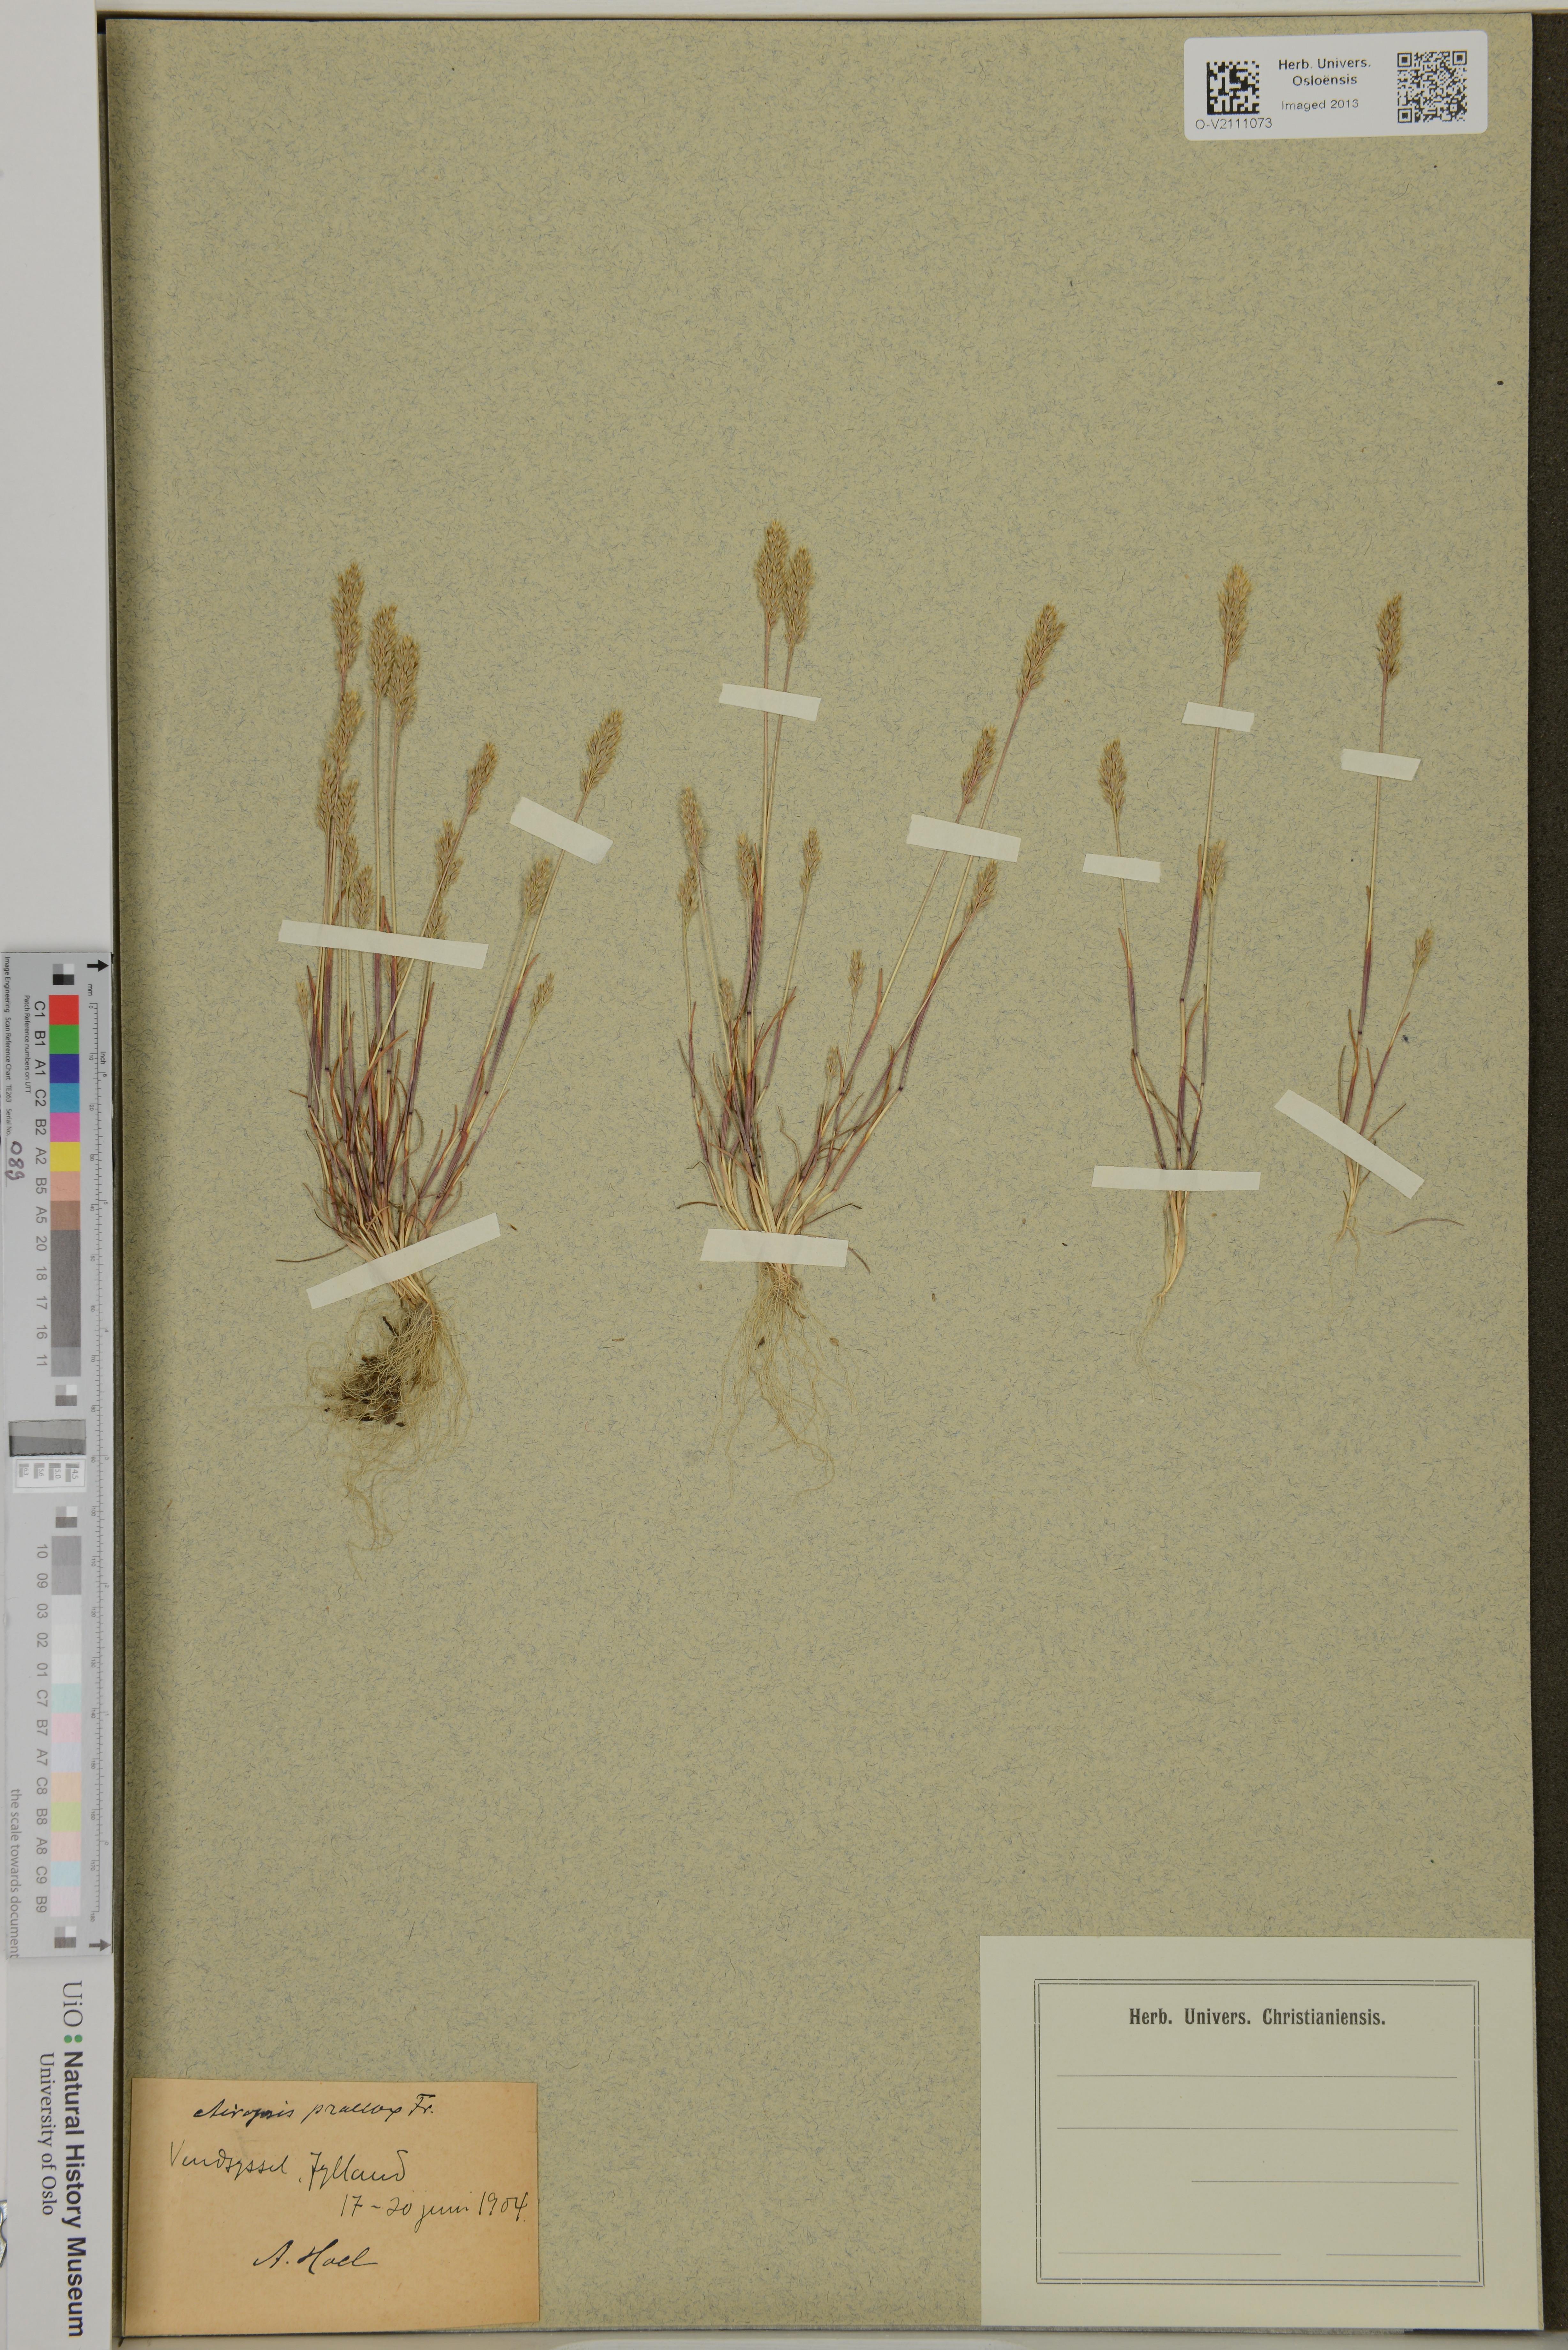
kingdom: Plantae
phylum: Tracheophyta
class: Liliopsida
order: Poales
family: Poaceae
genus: Aira
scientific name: Aira praecox
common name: Early hair-grass
